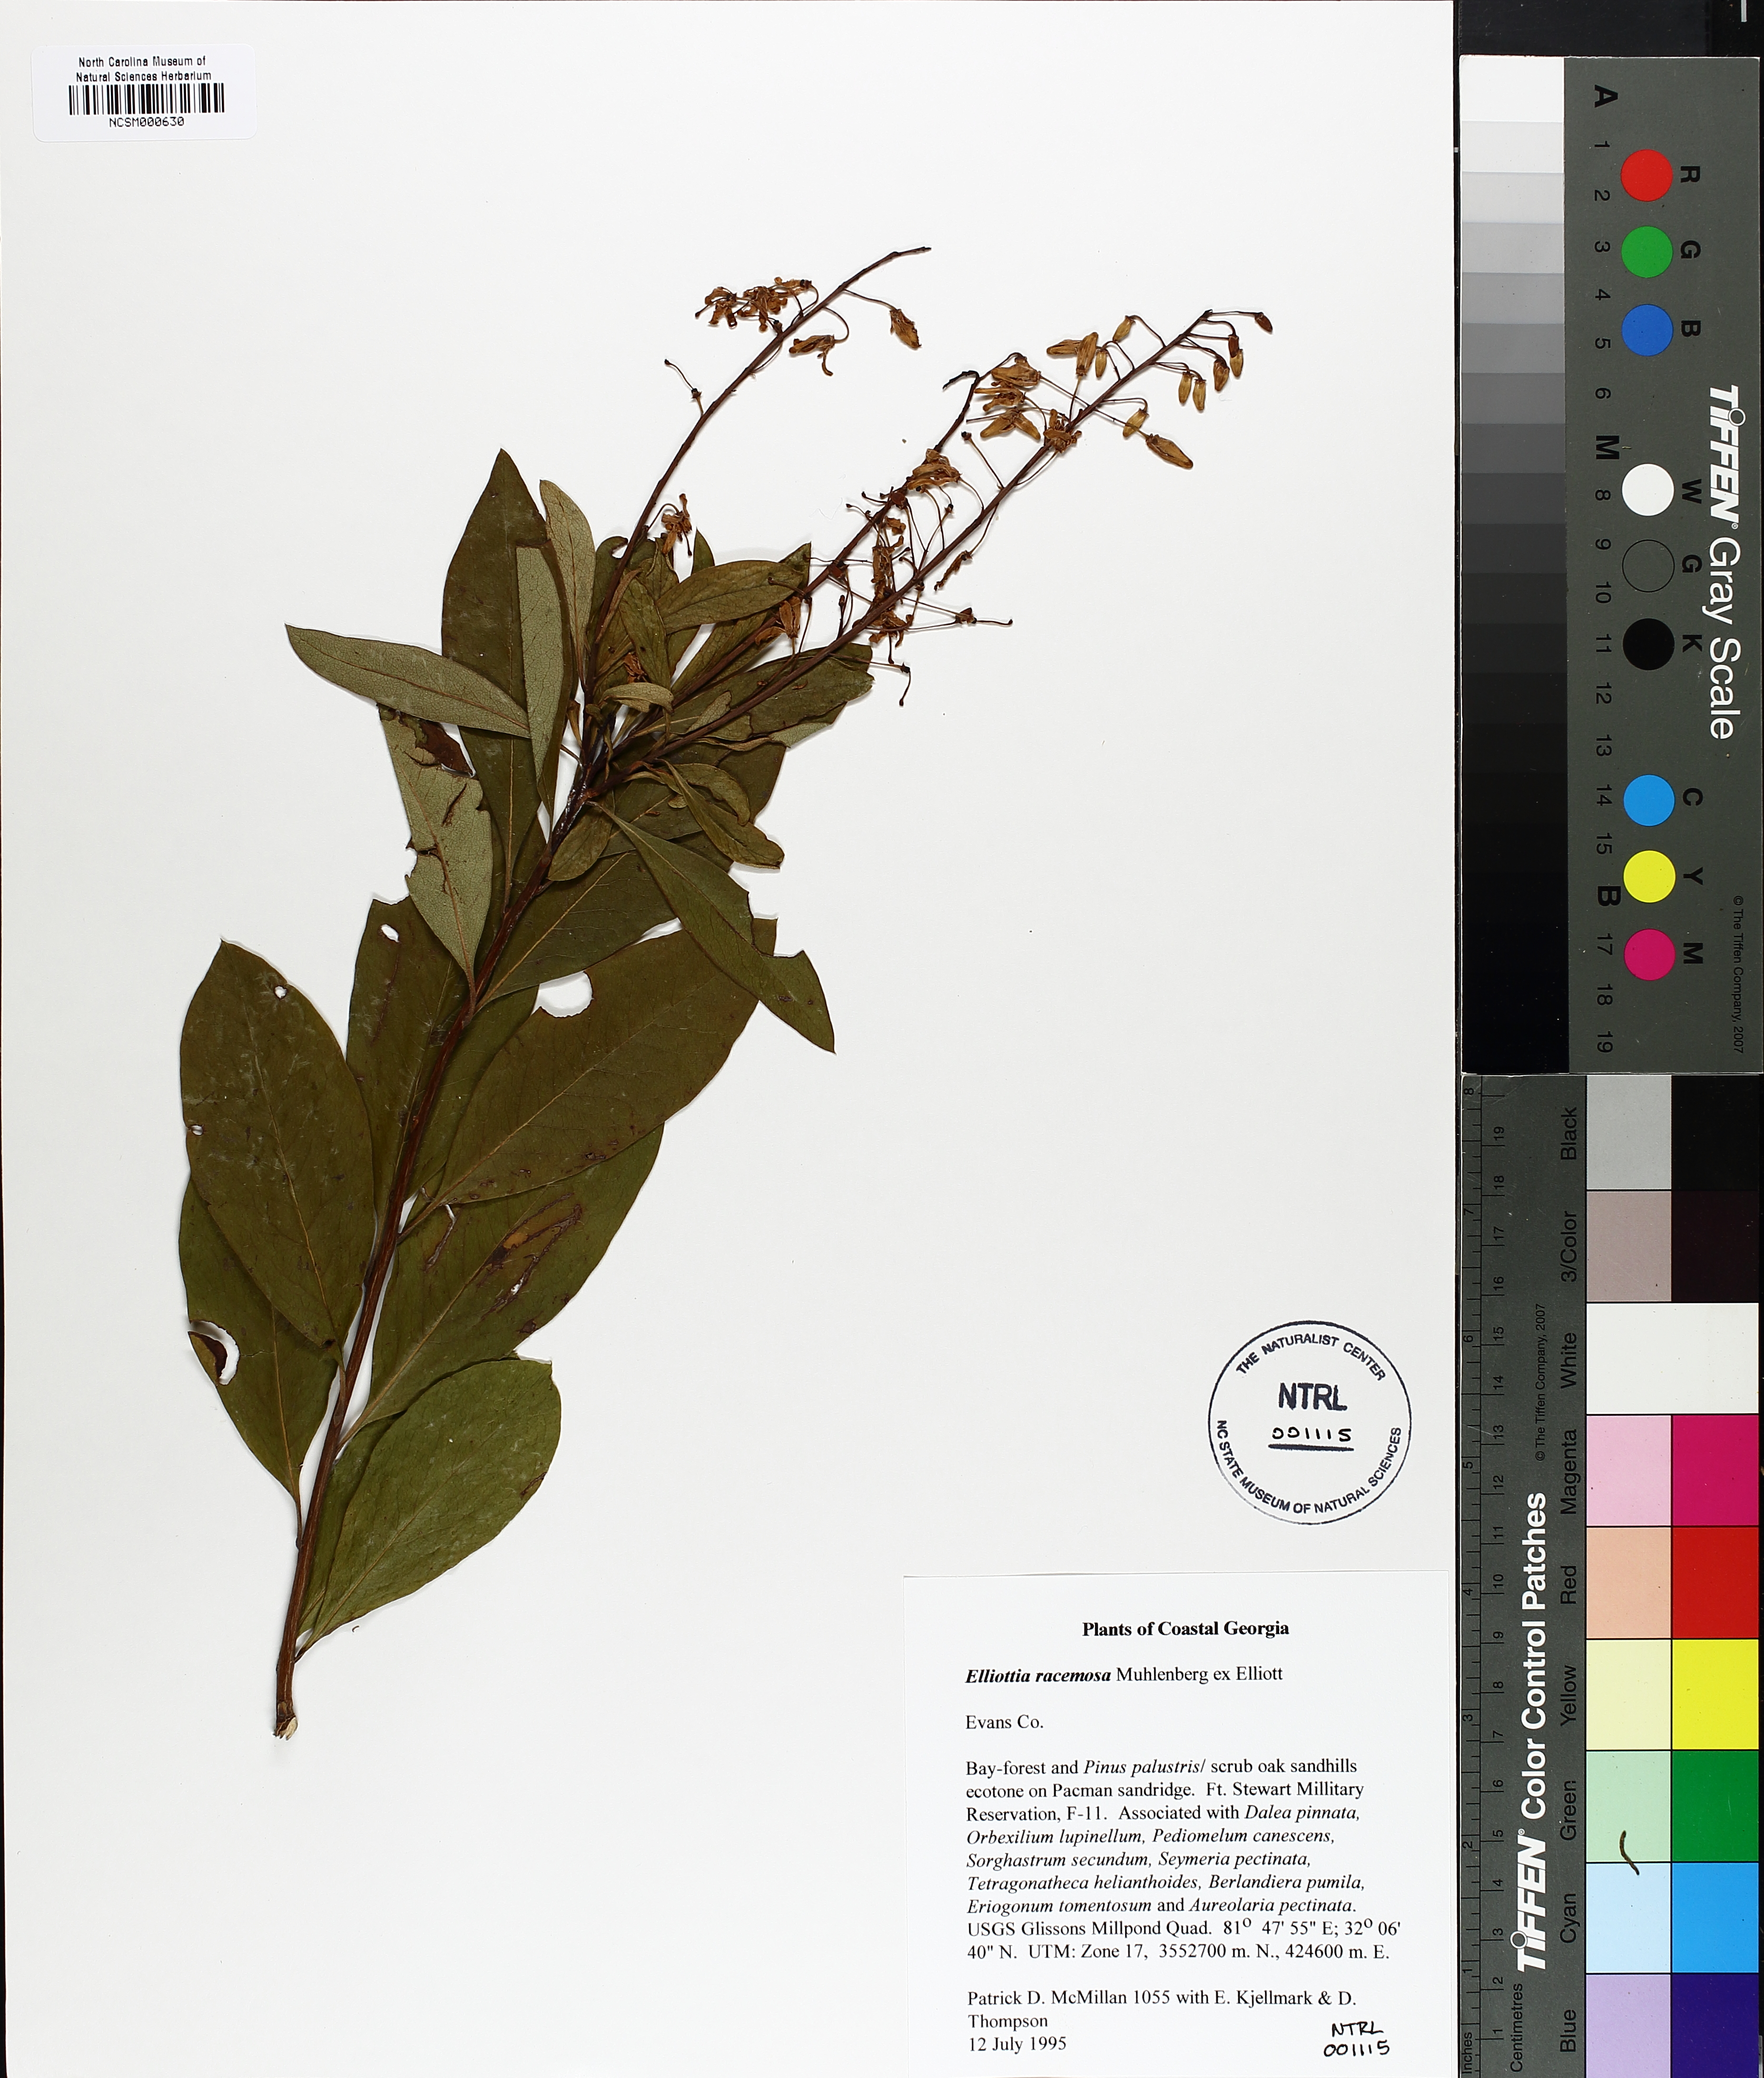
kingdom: Plantae
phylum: Tracheophyta
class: Magnoliopsida
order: Ericales
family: Ericaceae
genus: Elliottia
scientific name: Elliottia racemosa
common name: Georgia plume
